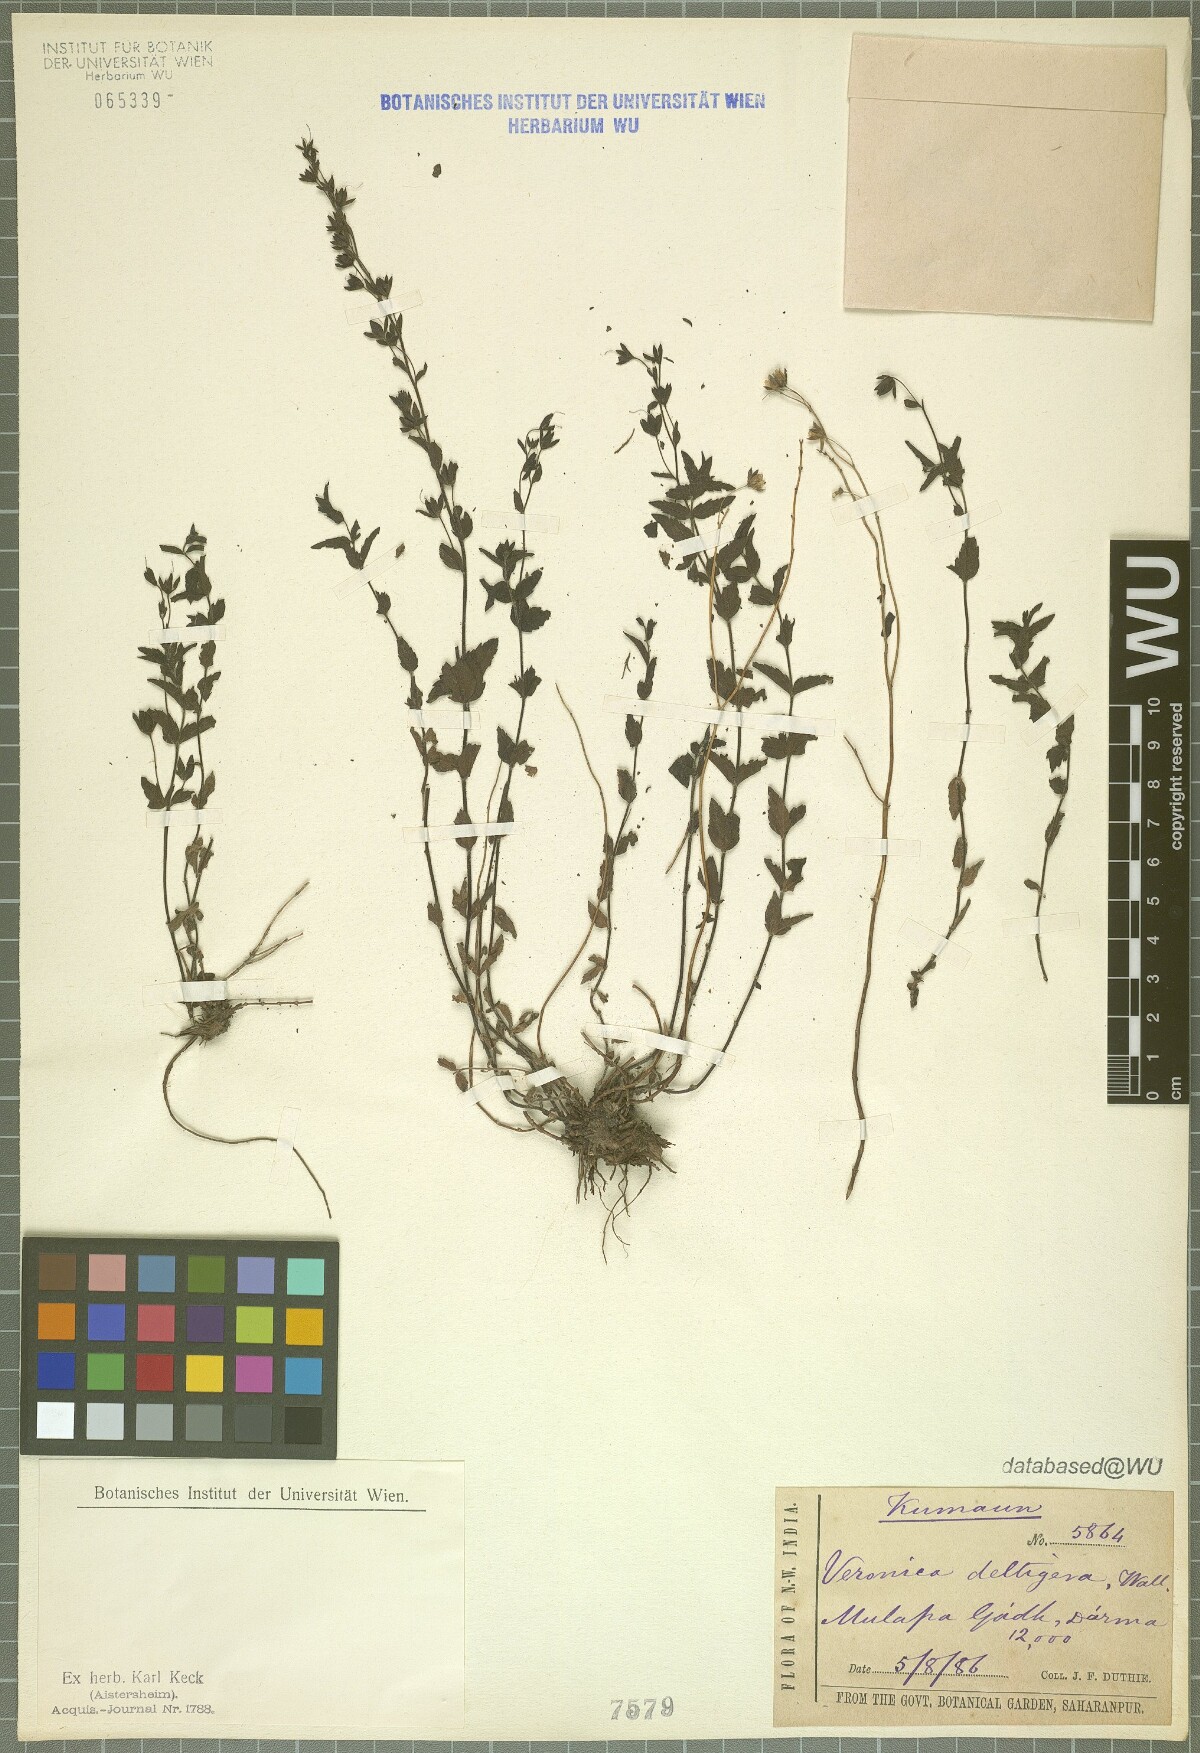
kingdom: Plantae
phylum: Tracheophyta
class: Magnoliopsida
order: Lamiales
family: Plantaginaceae
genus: Veronica
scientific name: Veronica deltigera
